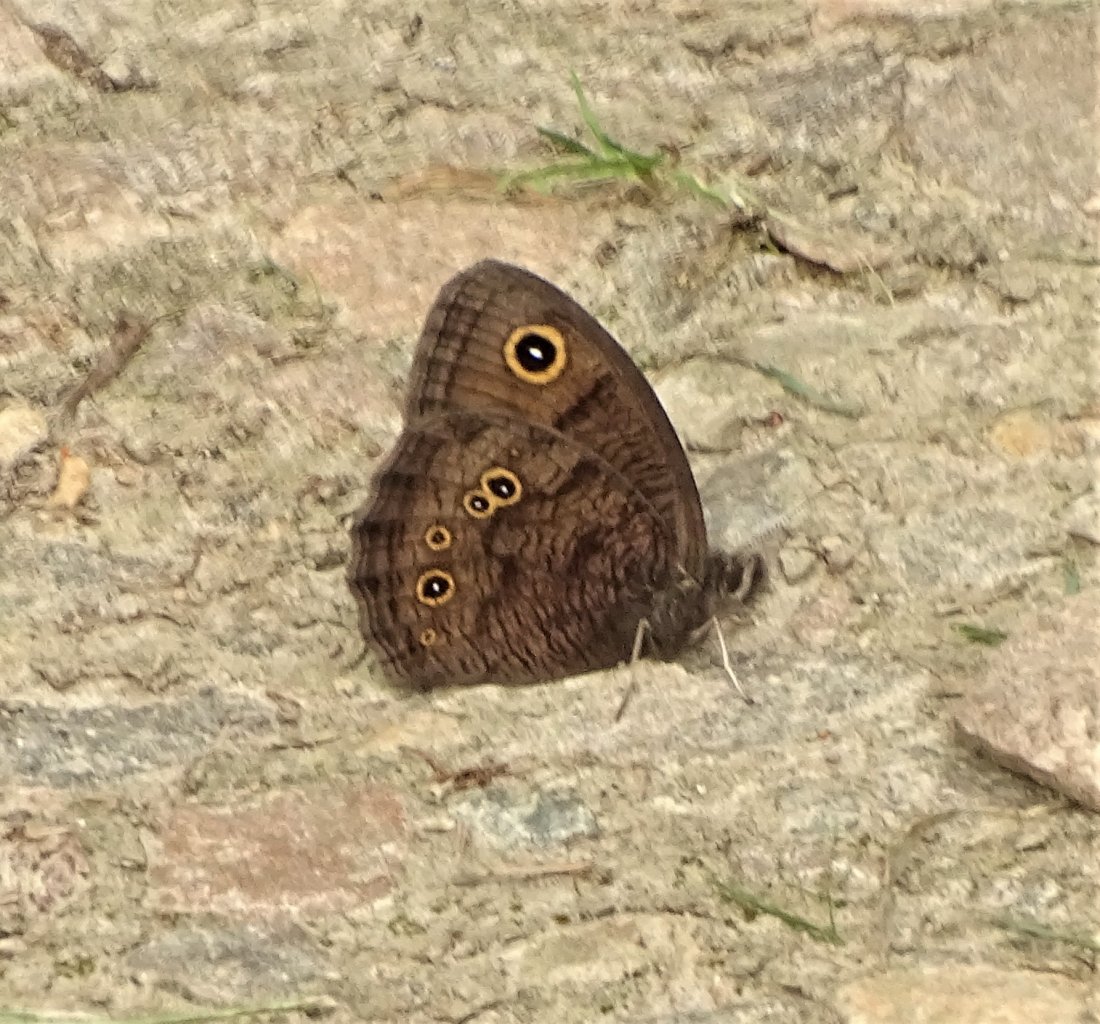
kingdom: Animalia
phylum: Arthropoda
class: Insecta
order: Lepidoptera
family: Nymphalidae
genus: Cercyonis
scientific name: Cercyonis pegala
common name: Common Wood-Nymph
